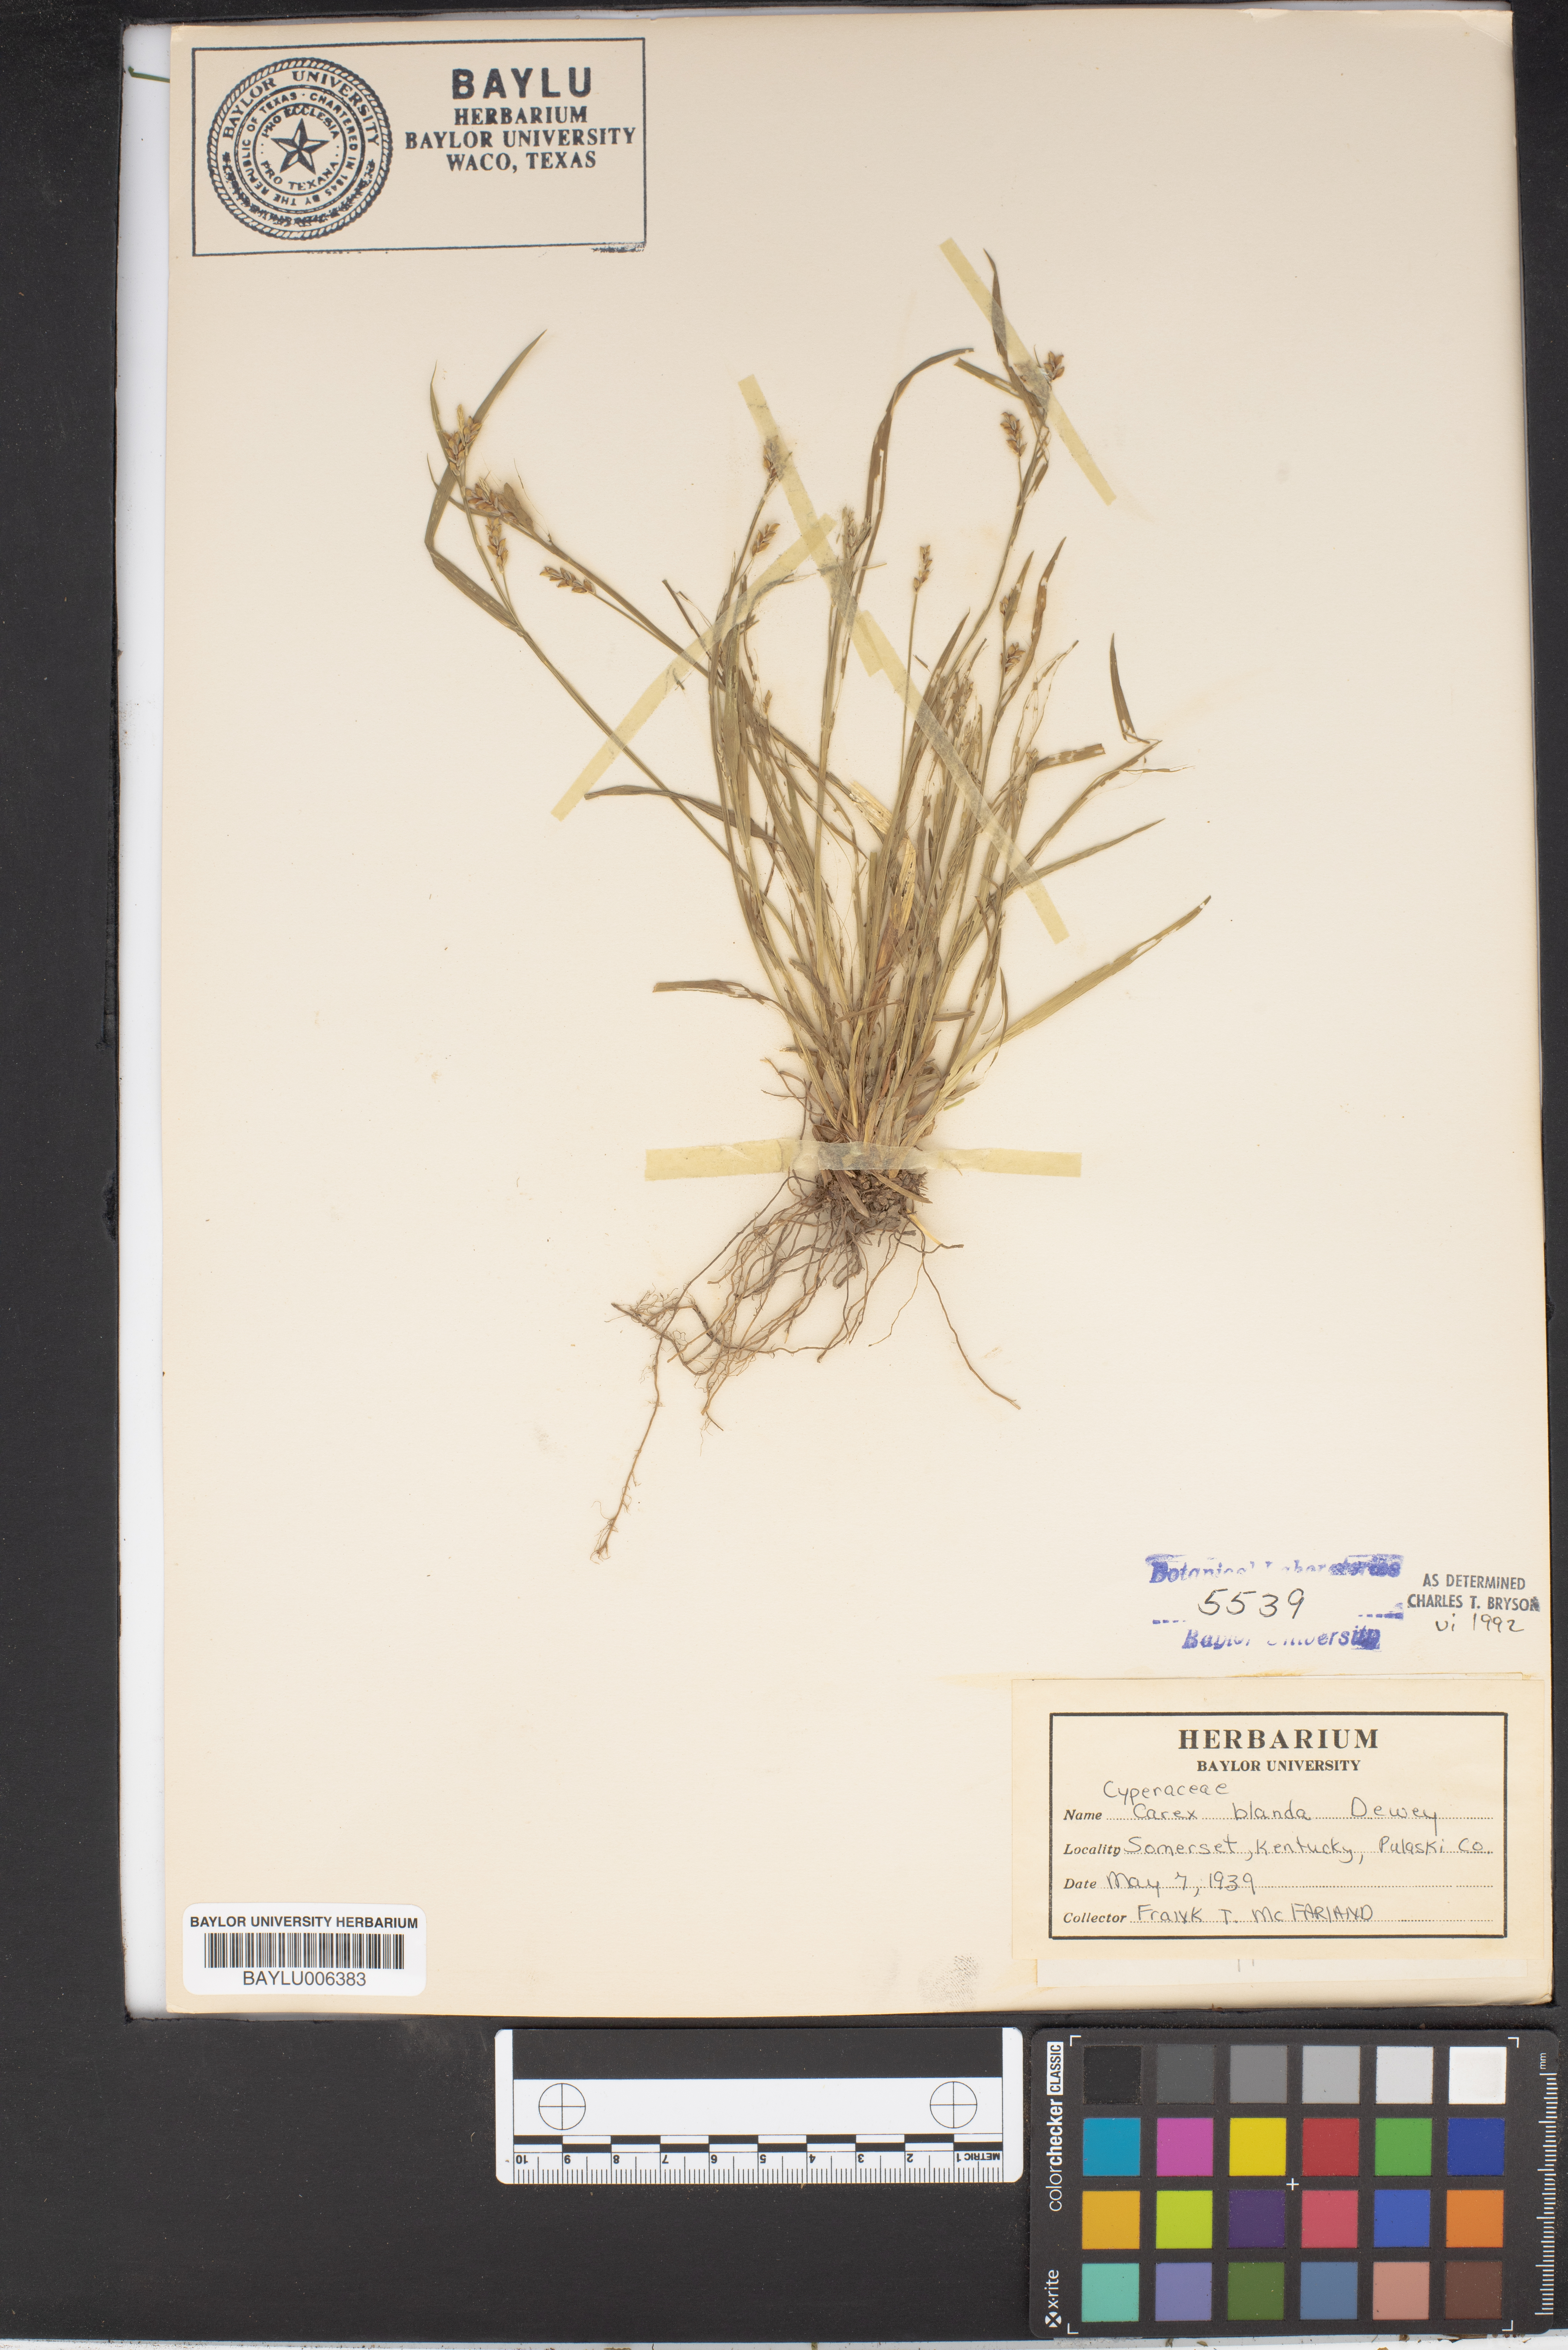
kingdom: Plantae
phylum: Tracheophyta
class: Liliopsida
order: Poales
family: Cyperaceae
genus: Carex
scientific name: Carex blanda
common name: Bland sedge
